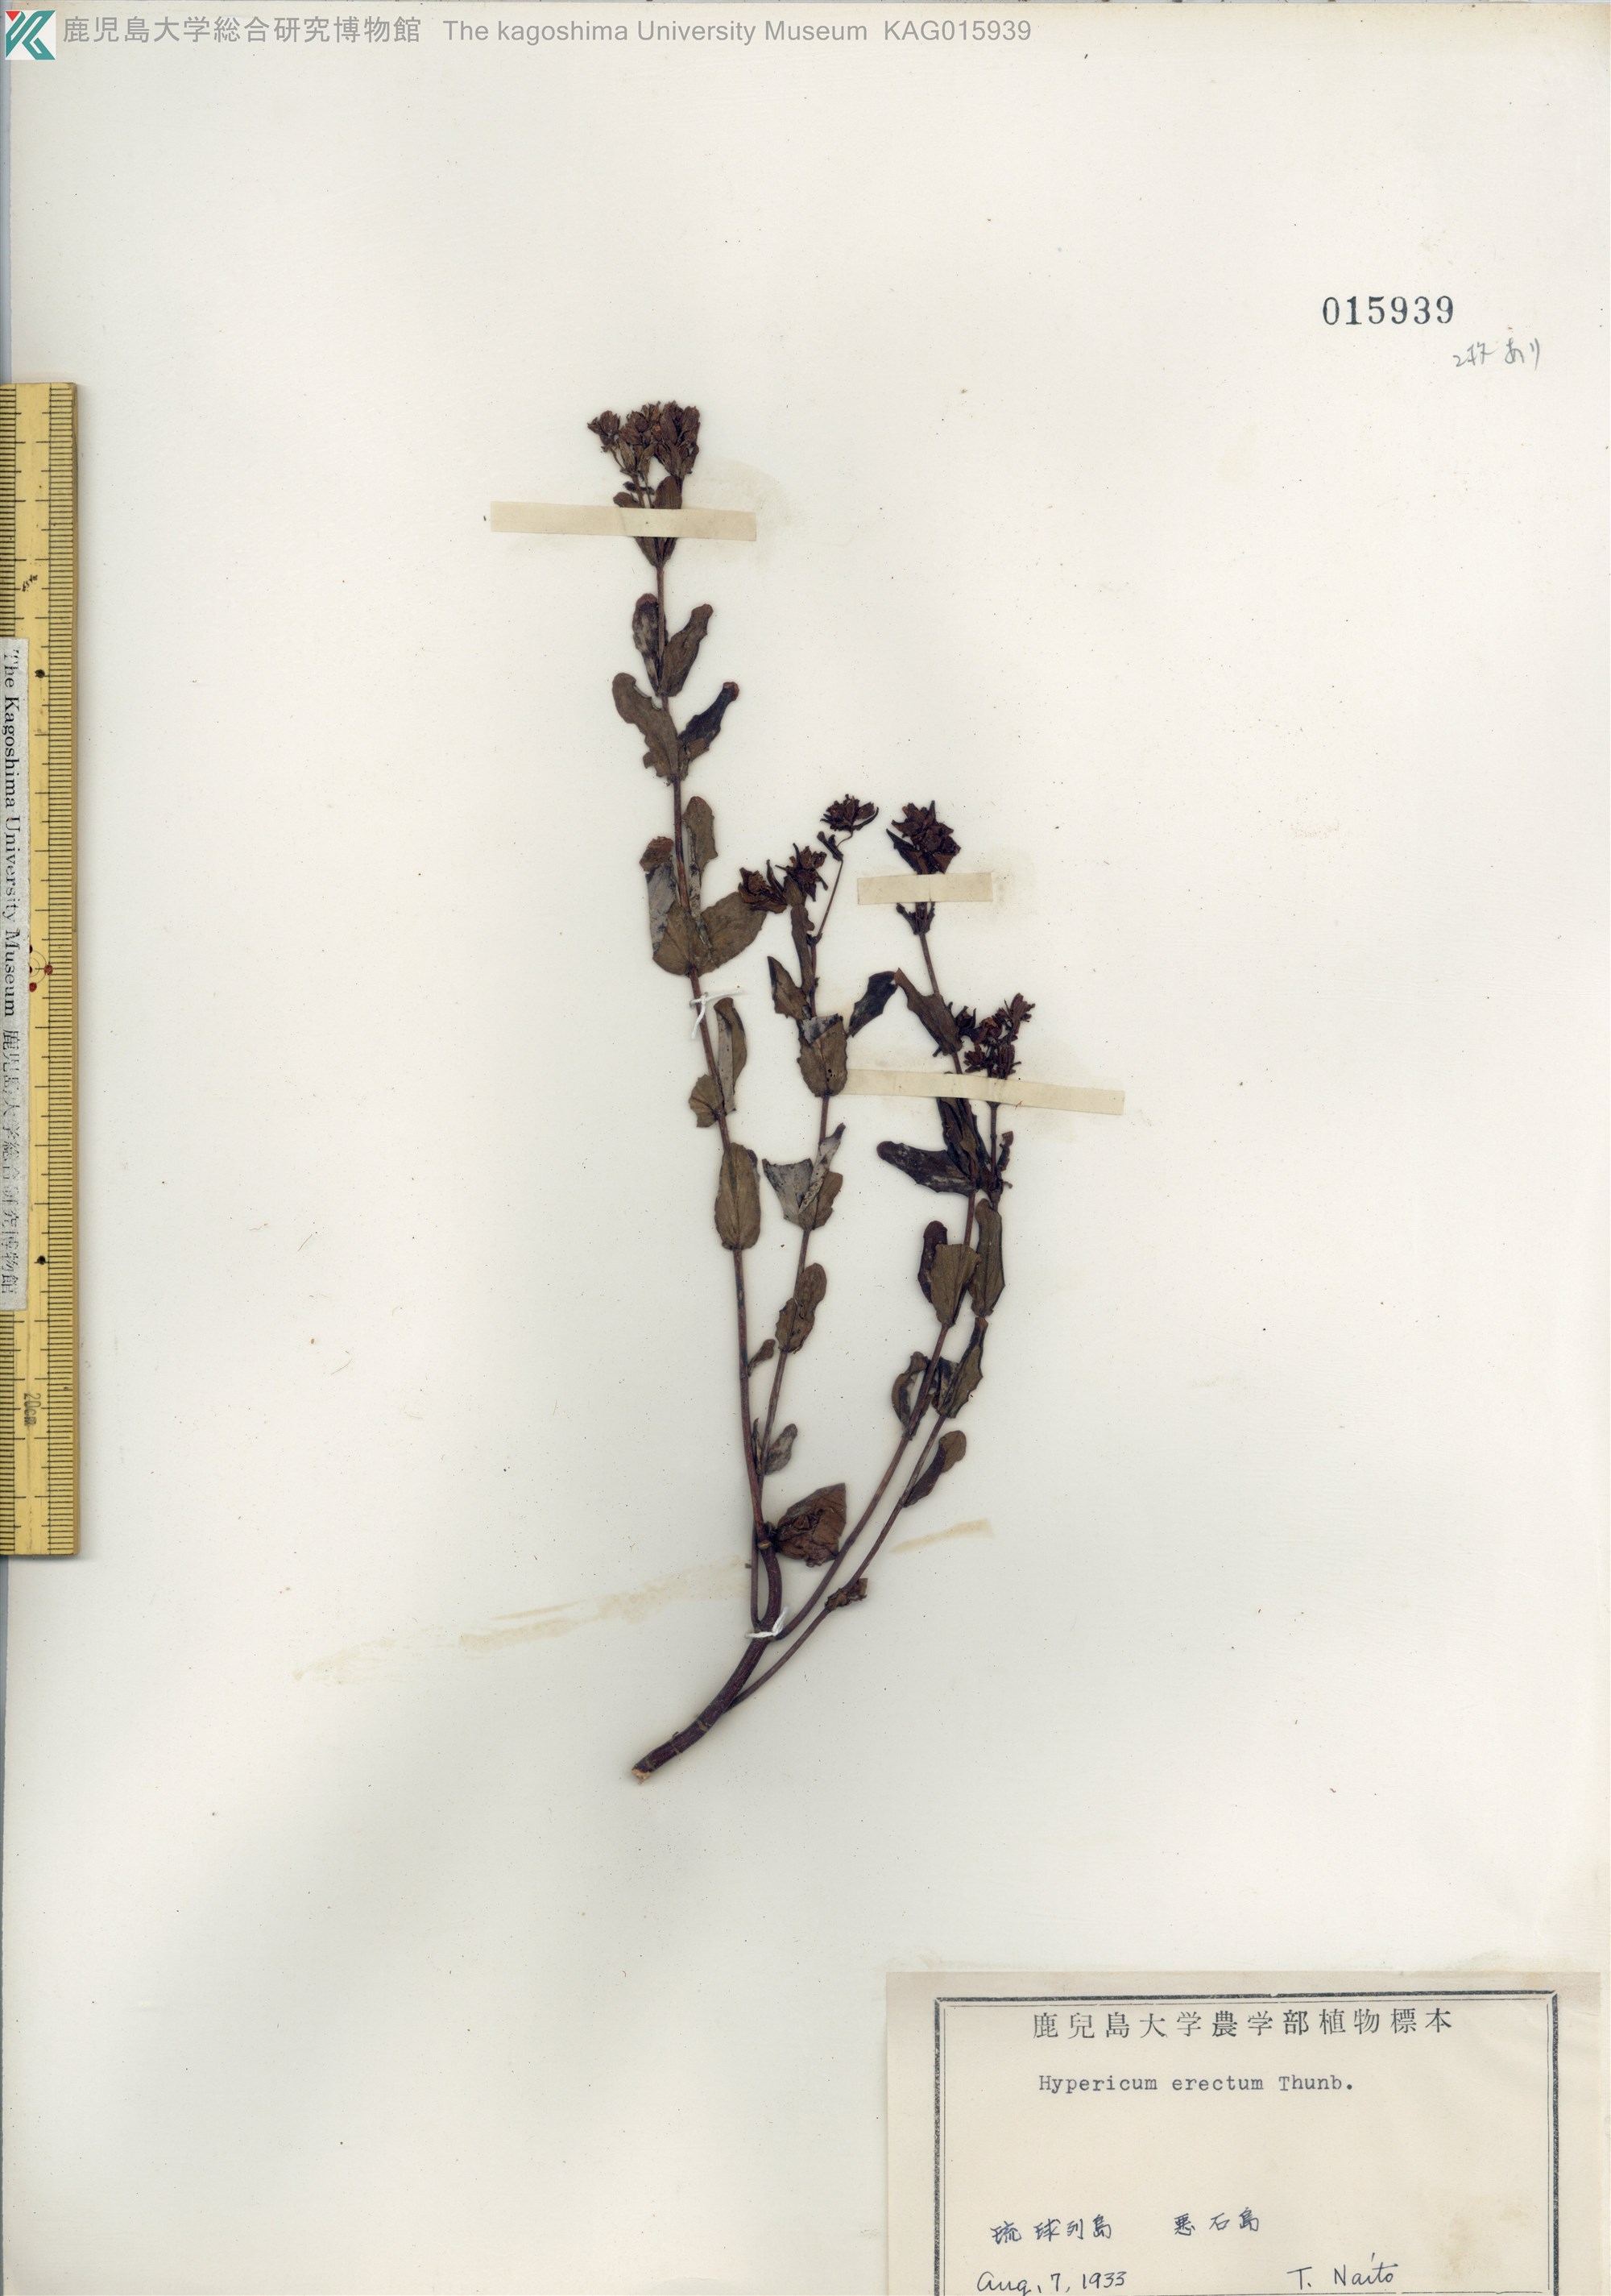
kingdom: Plantae
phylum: Tracheophyta
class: Magnoliopsida
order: Malpighiales
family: Hypericaceae
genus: Hypericum
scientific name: Hypericum erectum
